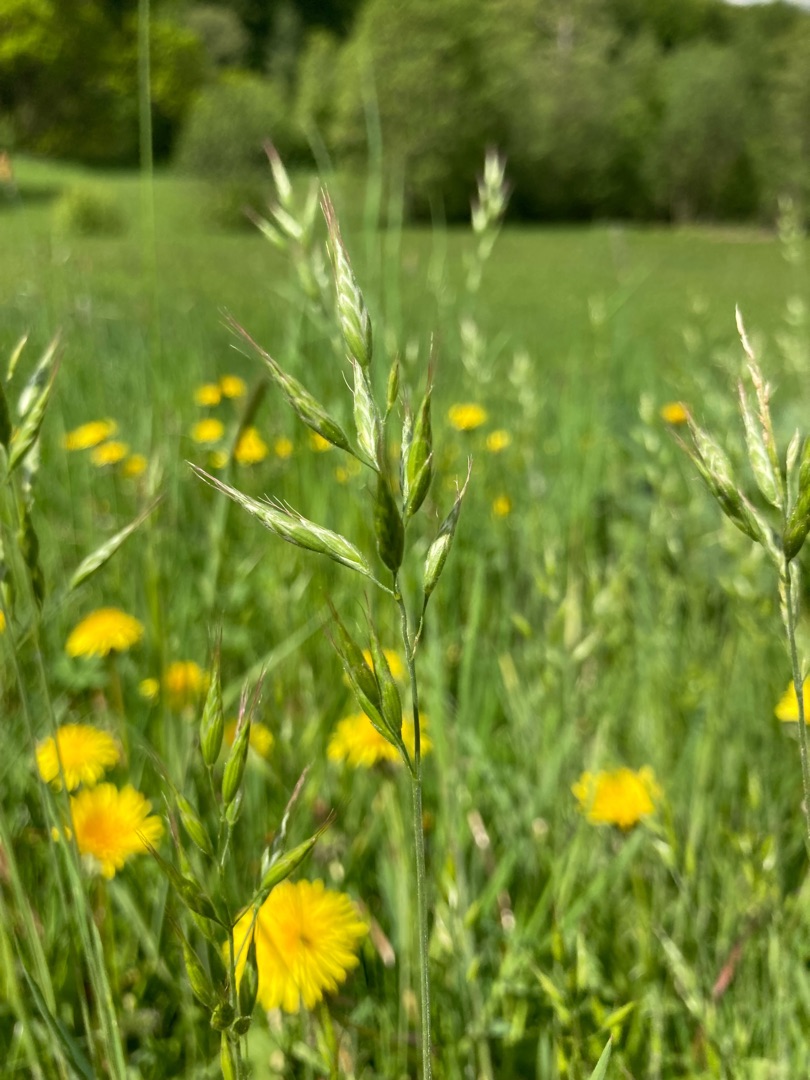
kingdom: Plantae
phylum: Tracheophyta
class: Liliopsida
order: Poales
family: Poaceae
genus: Bromus
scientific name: Bromus hordeaceus
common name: Blød hejre
